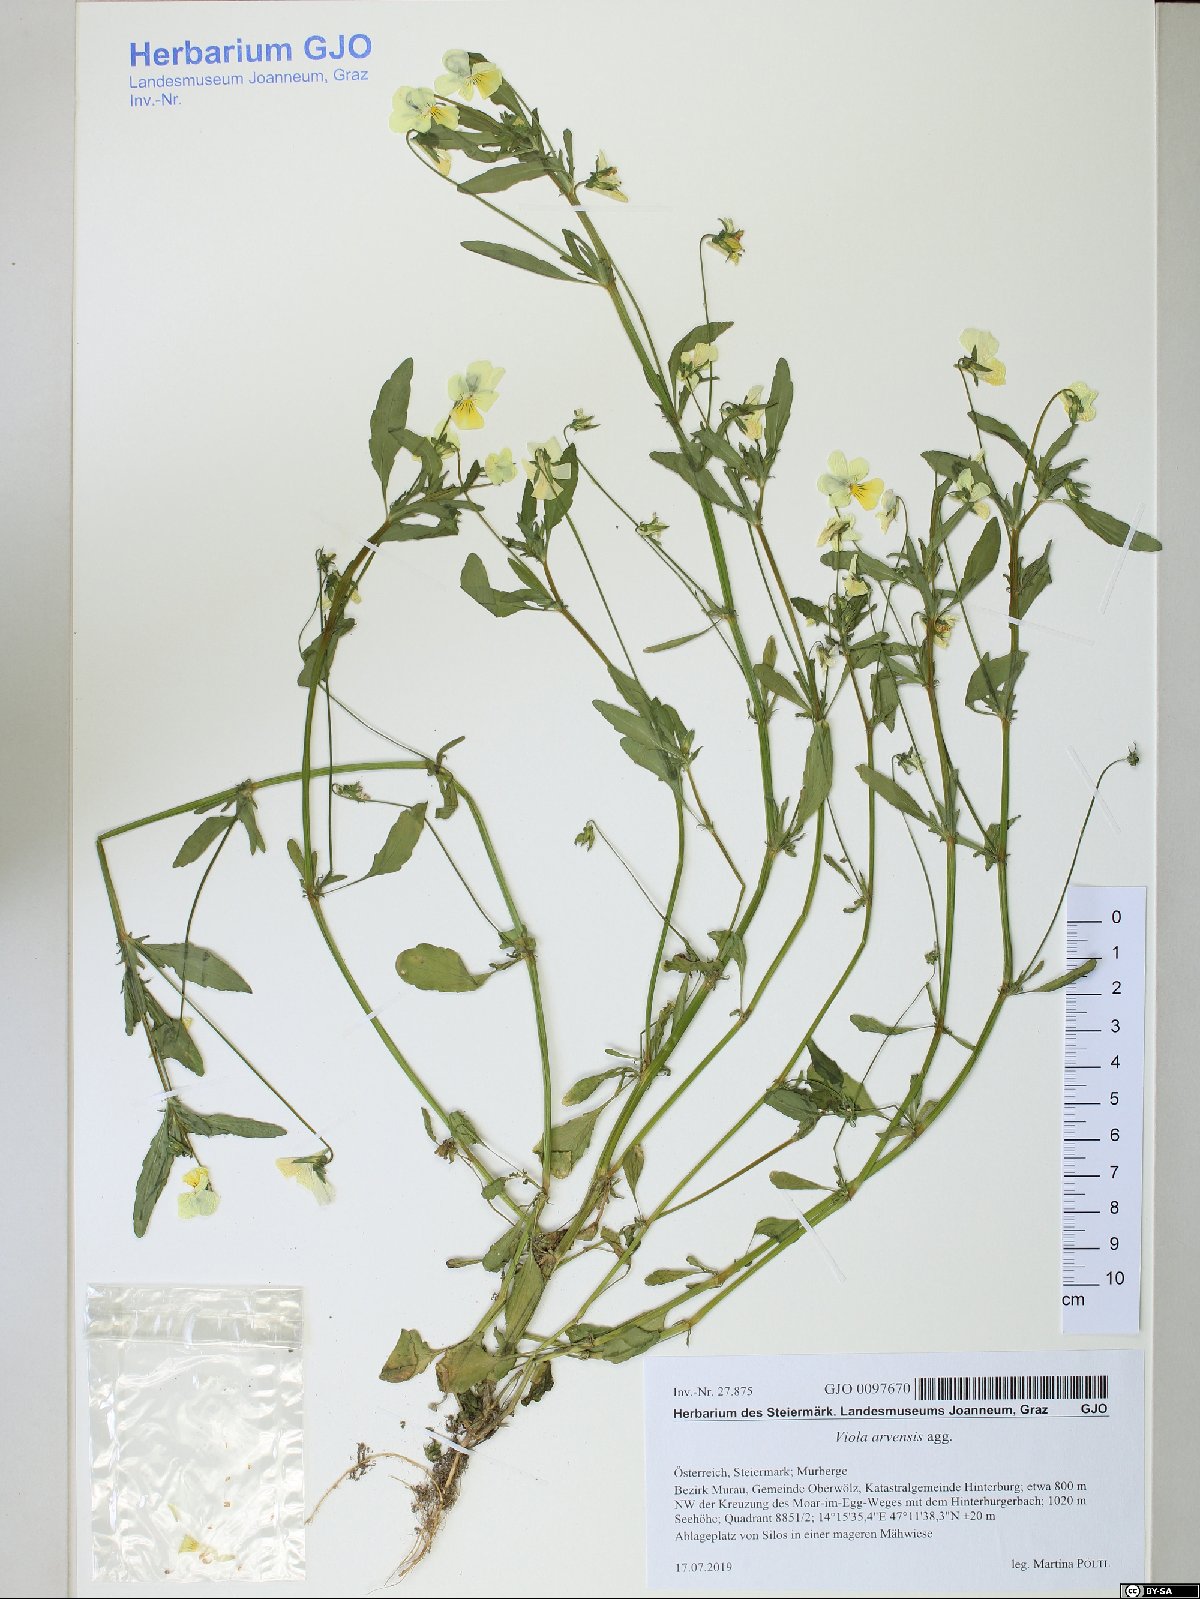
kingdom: Plantae
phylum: Tracheophyta
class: Magnoliopsida
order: Malpighiales
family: Violaceae
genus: Viola
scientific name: Viola arvensis
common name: Field pansy
